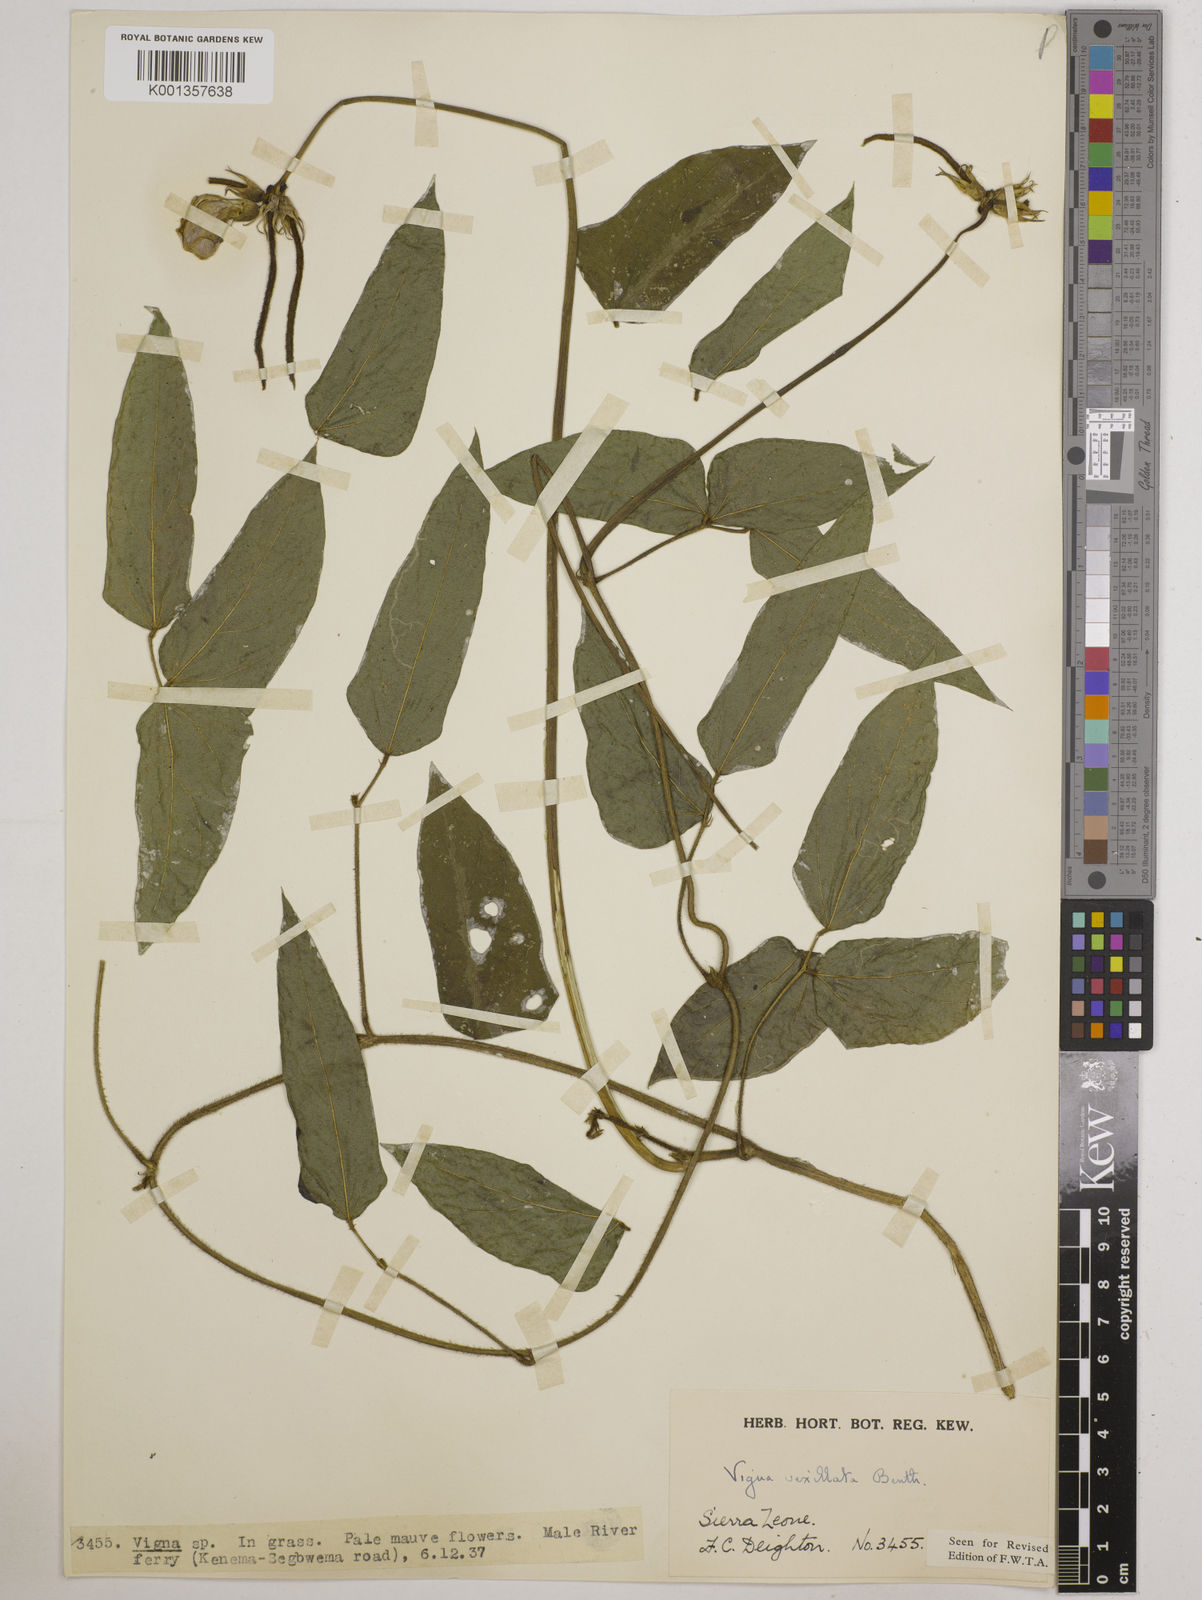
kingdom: Plantae
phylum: Tracheophyta
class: Magnoliopsida
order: Fabales
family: Fabaceae
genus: Vigna
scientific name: Vigna vexillata
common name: Zombi pea
